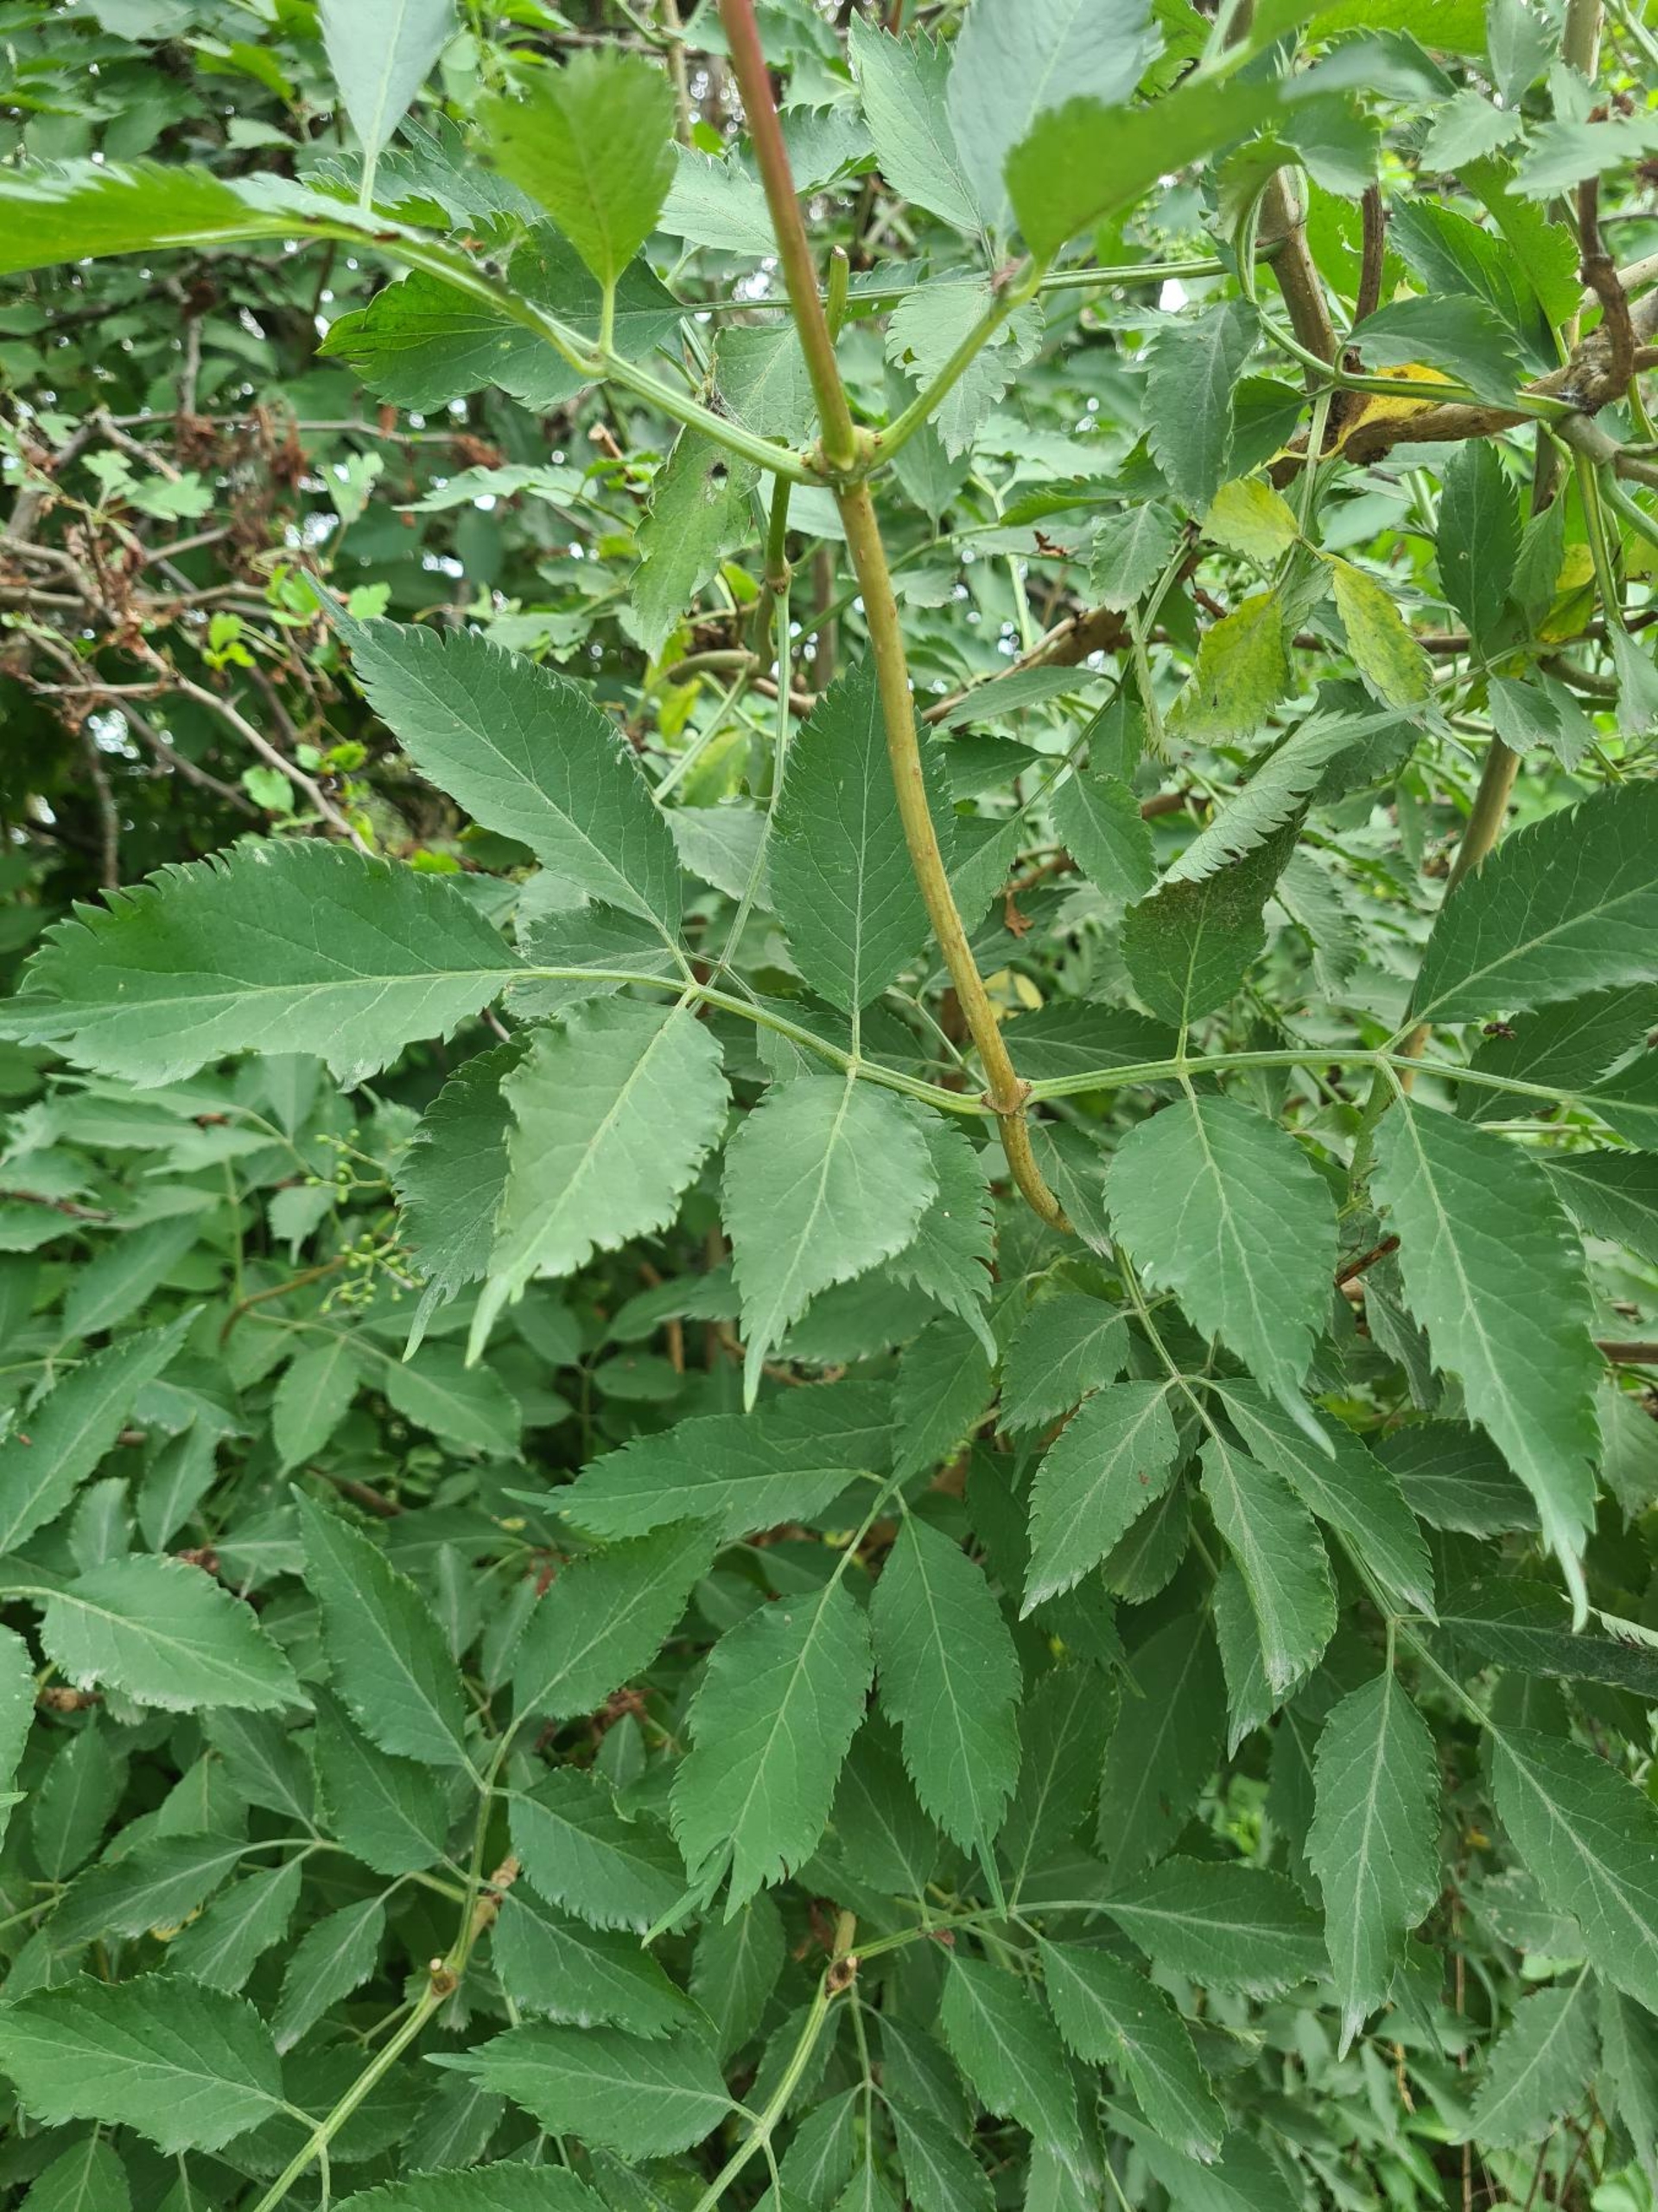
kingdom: Plantae
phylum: Tracheophyta
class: Magnoliopsida
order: Dipsacales
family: Viburnaceae
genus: Sambucus
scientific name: Sambucus nigra
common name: Almindelig hyld
